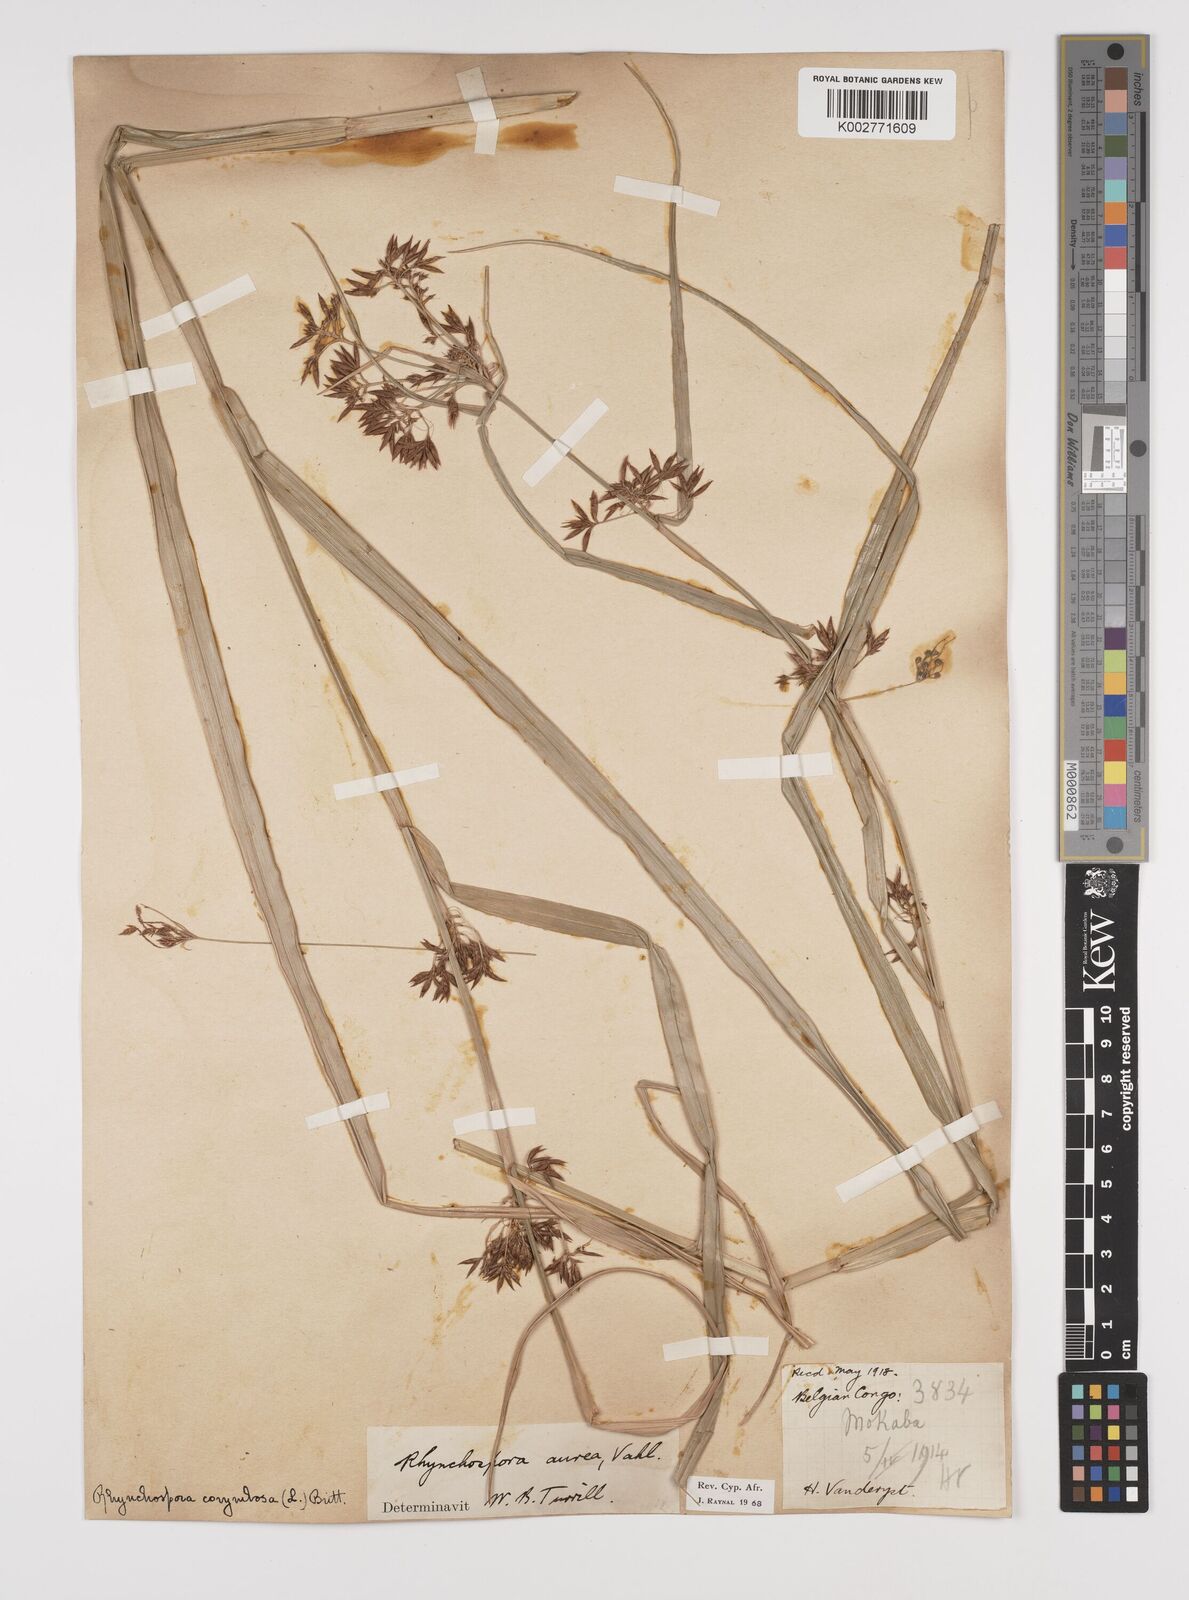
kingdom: Plantae
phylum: Tracheophyta
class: Liliopsida
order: Poales
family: Cyperaceae
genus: Rhynchospora
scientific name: Rhynchospora corymbosa
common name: Golden beak sedge
